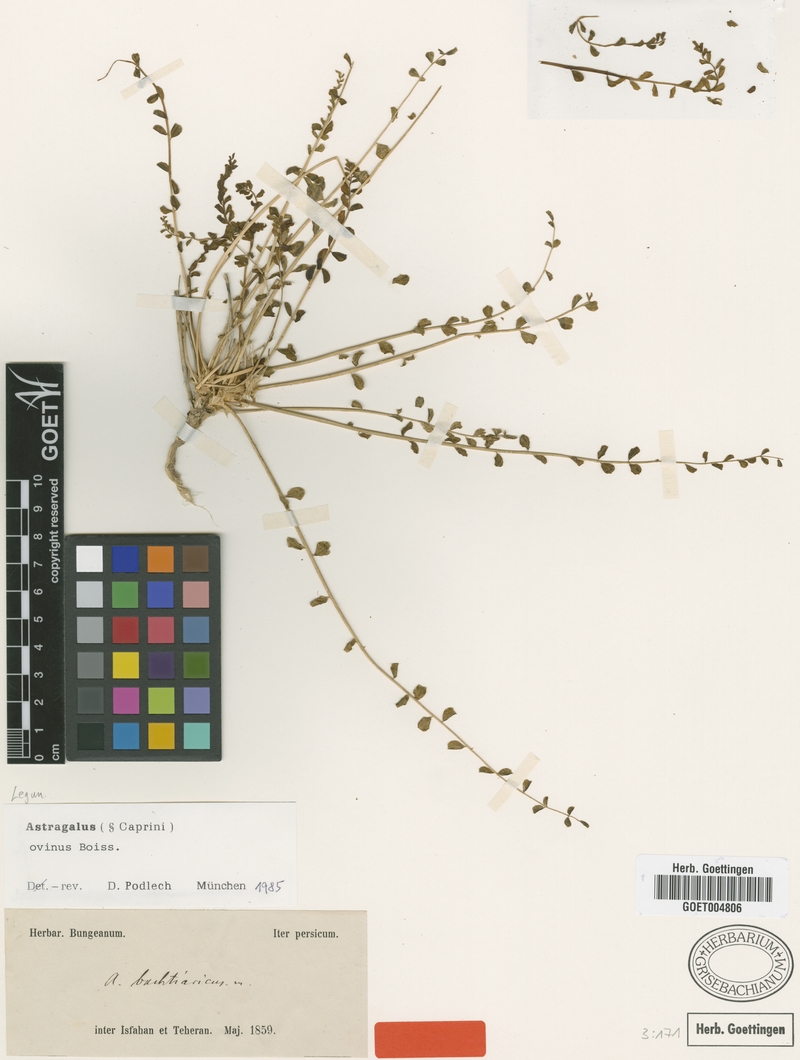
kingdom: Plantae
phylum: Tracheophyta
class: Magnoliopsida
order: Fabales
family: Fabaceae
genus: Astragalus
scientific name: Astragalus ovinus
